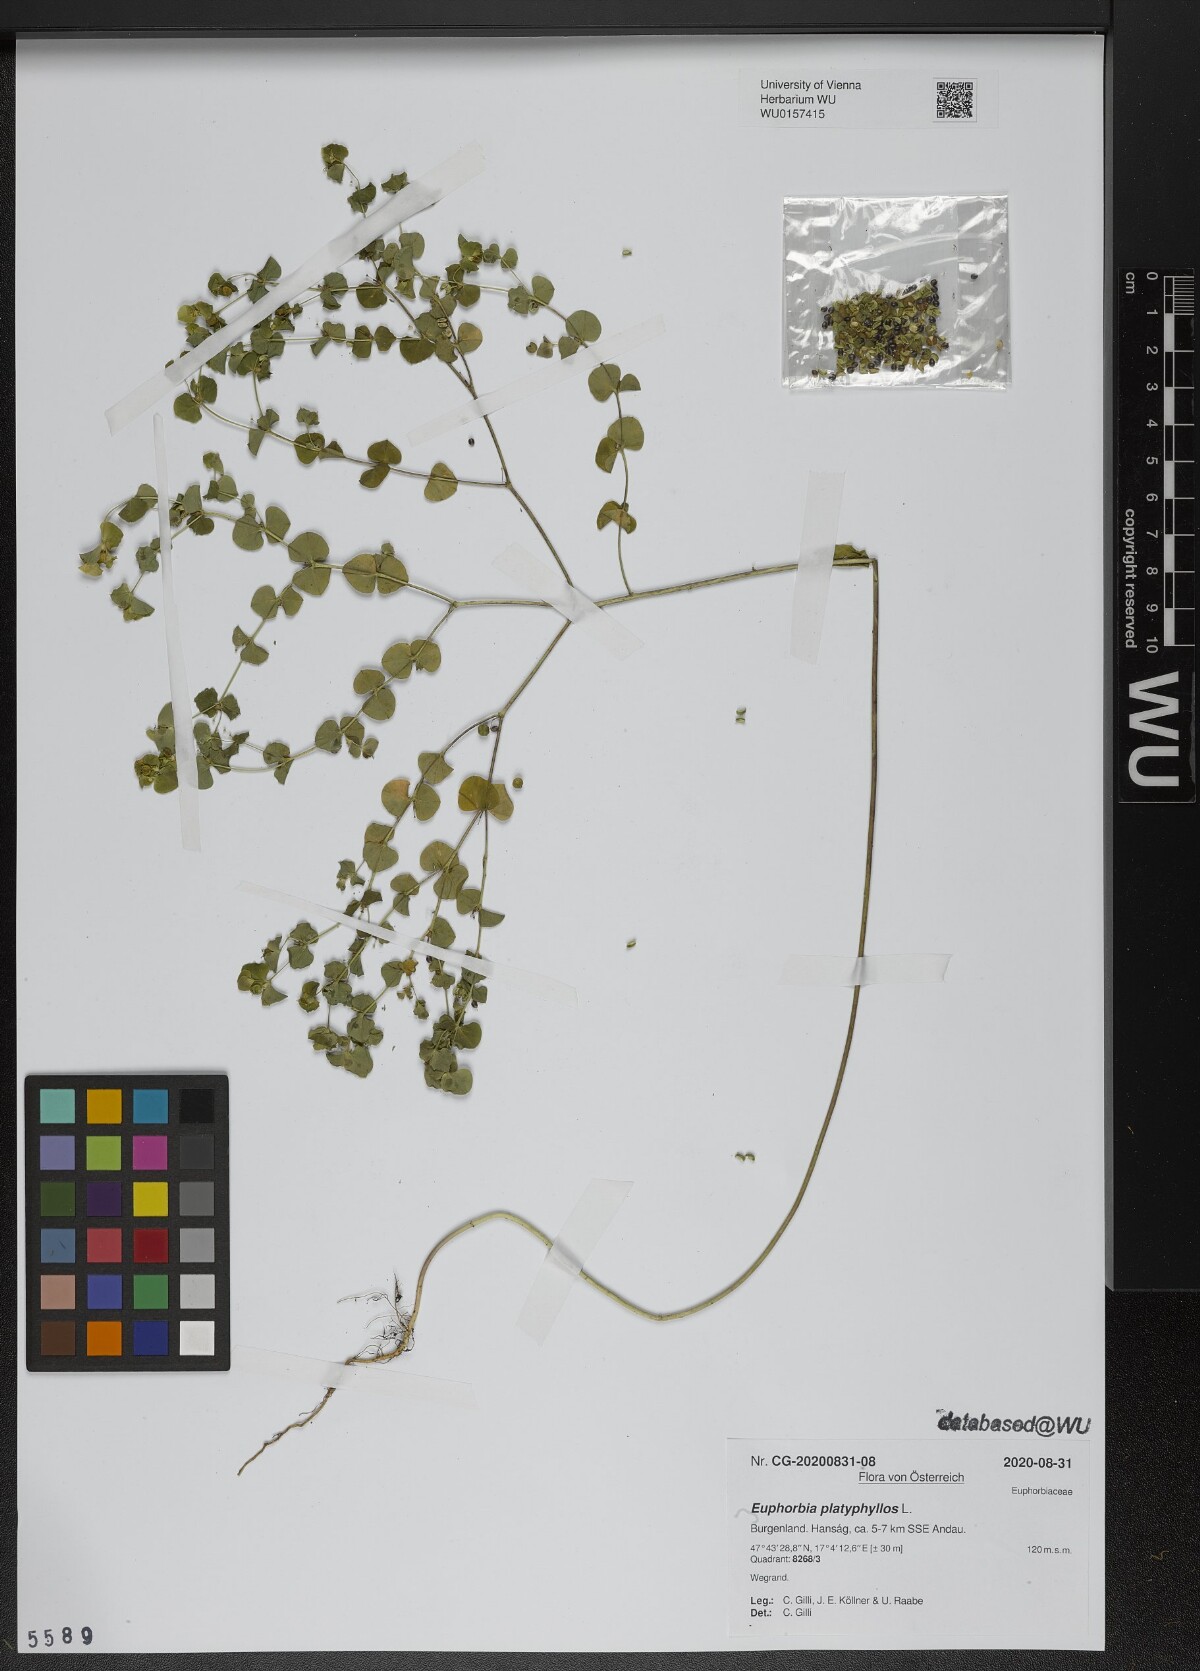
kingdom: Plantae
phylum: Tracheophyta
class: Magnoliopsida
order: Malpighiales
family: Euphorbiaceae
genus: Euphorbia
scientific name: Euphorbia platyphyllos
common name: Broad-leaved spurge
